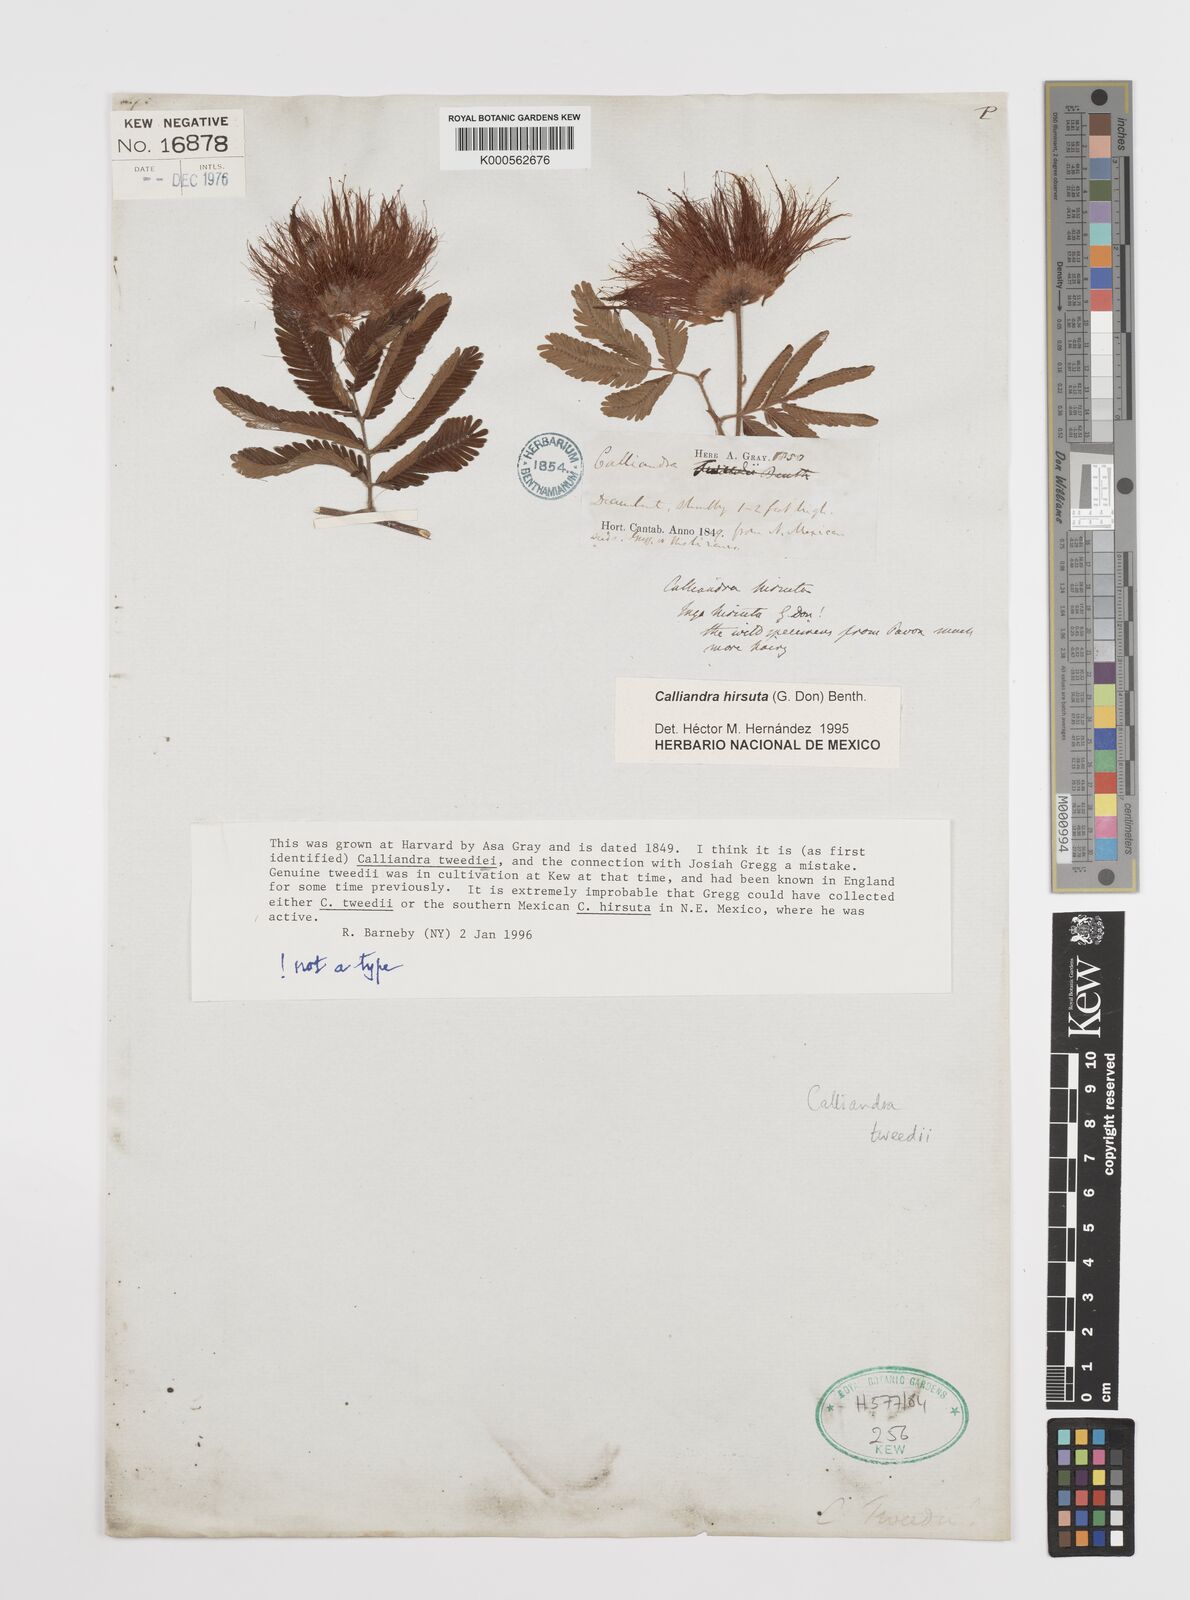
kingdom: Plantae
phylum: Tracheophyta
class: Magnoliopsida
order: Fabales
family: Fabaceae
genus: Calliandra
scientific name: Calliandra tweediei
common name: Mexican flamebush
